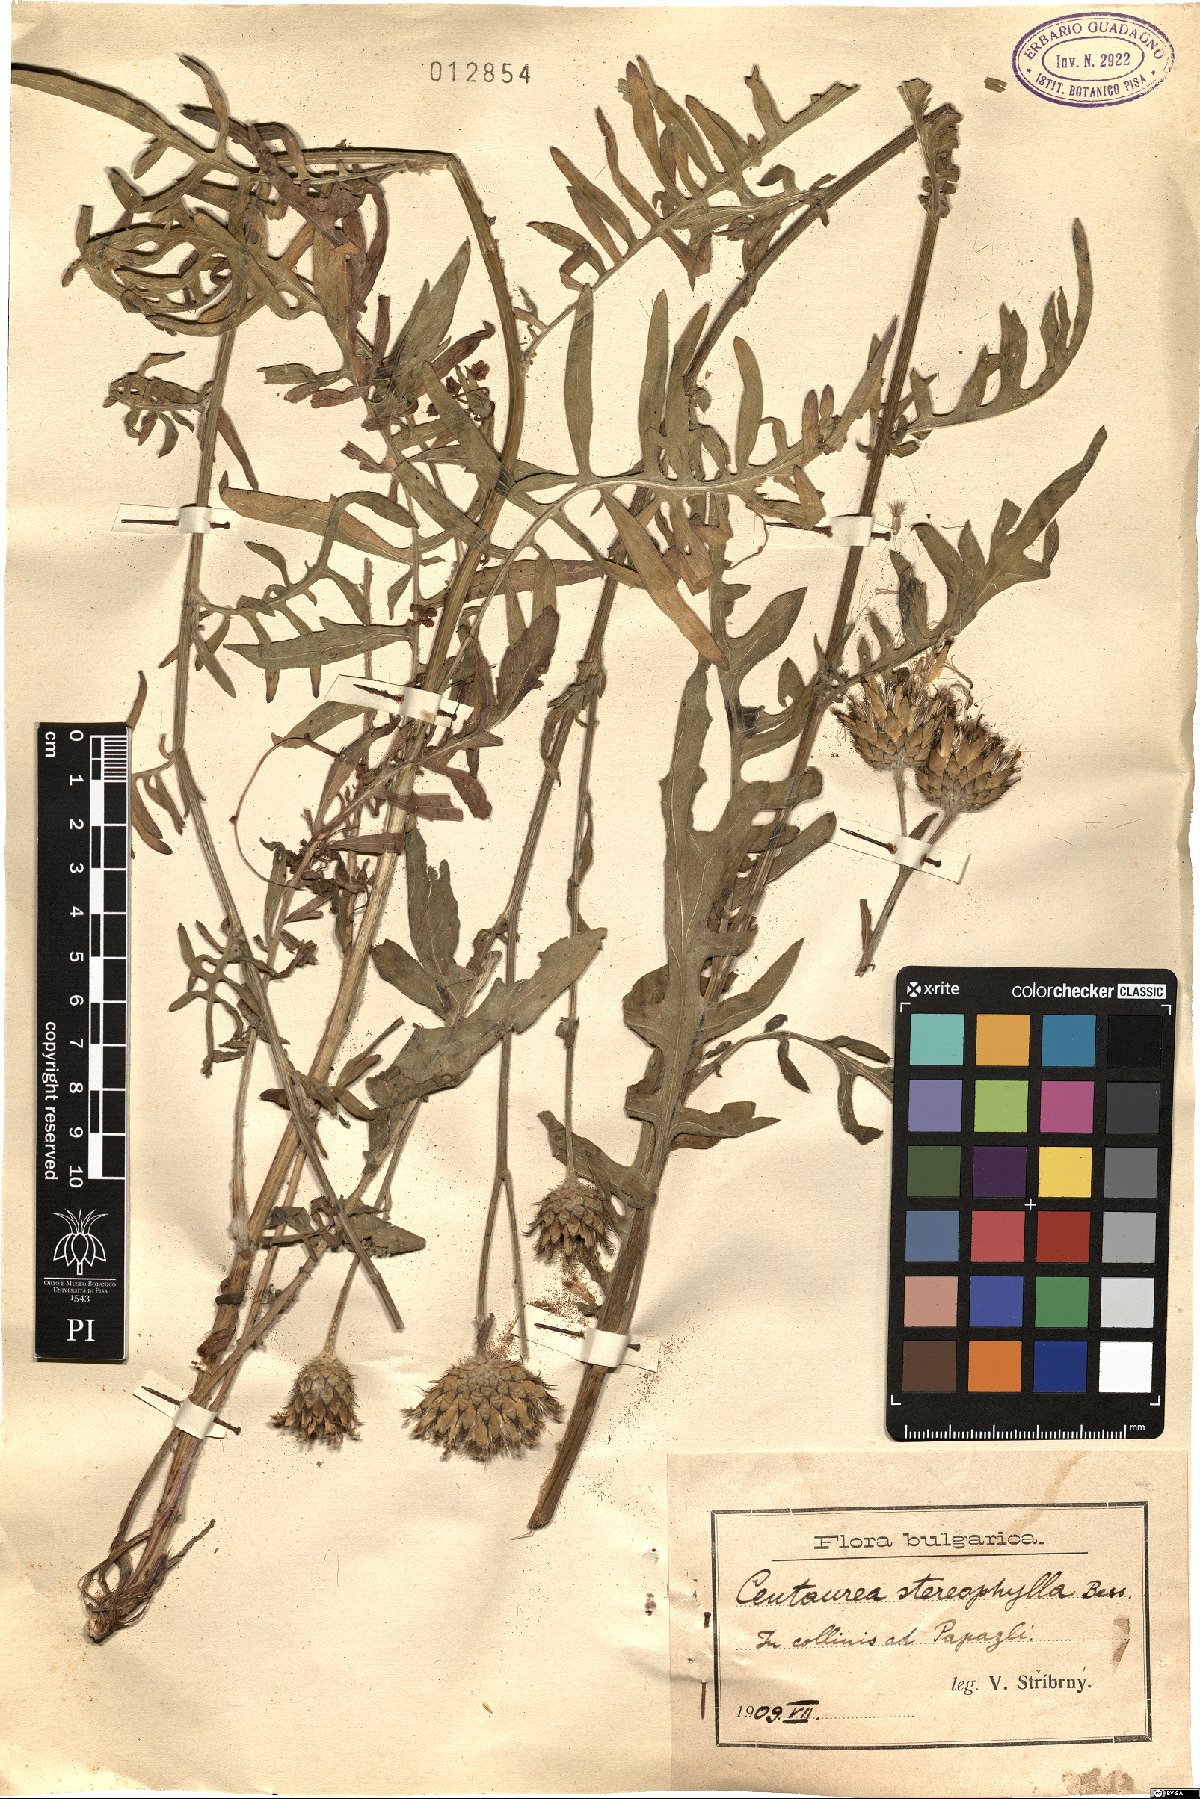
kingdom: Plantae
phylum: Tracheophyta
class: Magnoliopsida
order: Asterales
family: Asteraceae
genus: Centaurea
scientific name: Centaurea stereophylla
